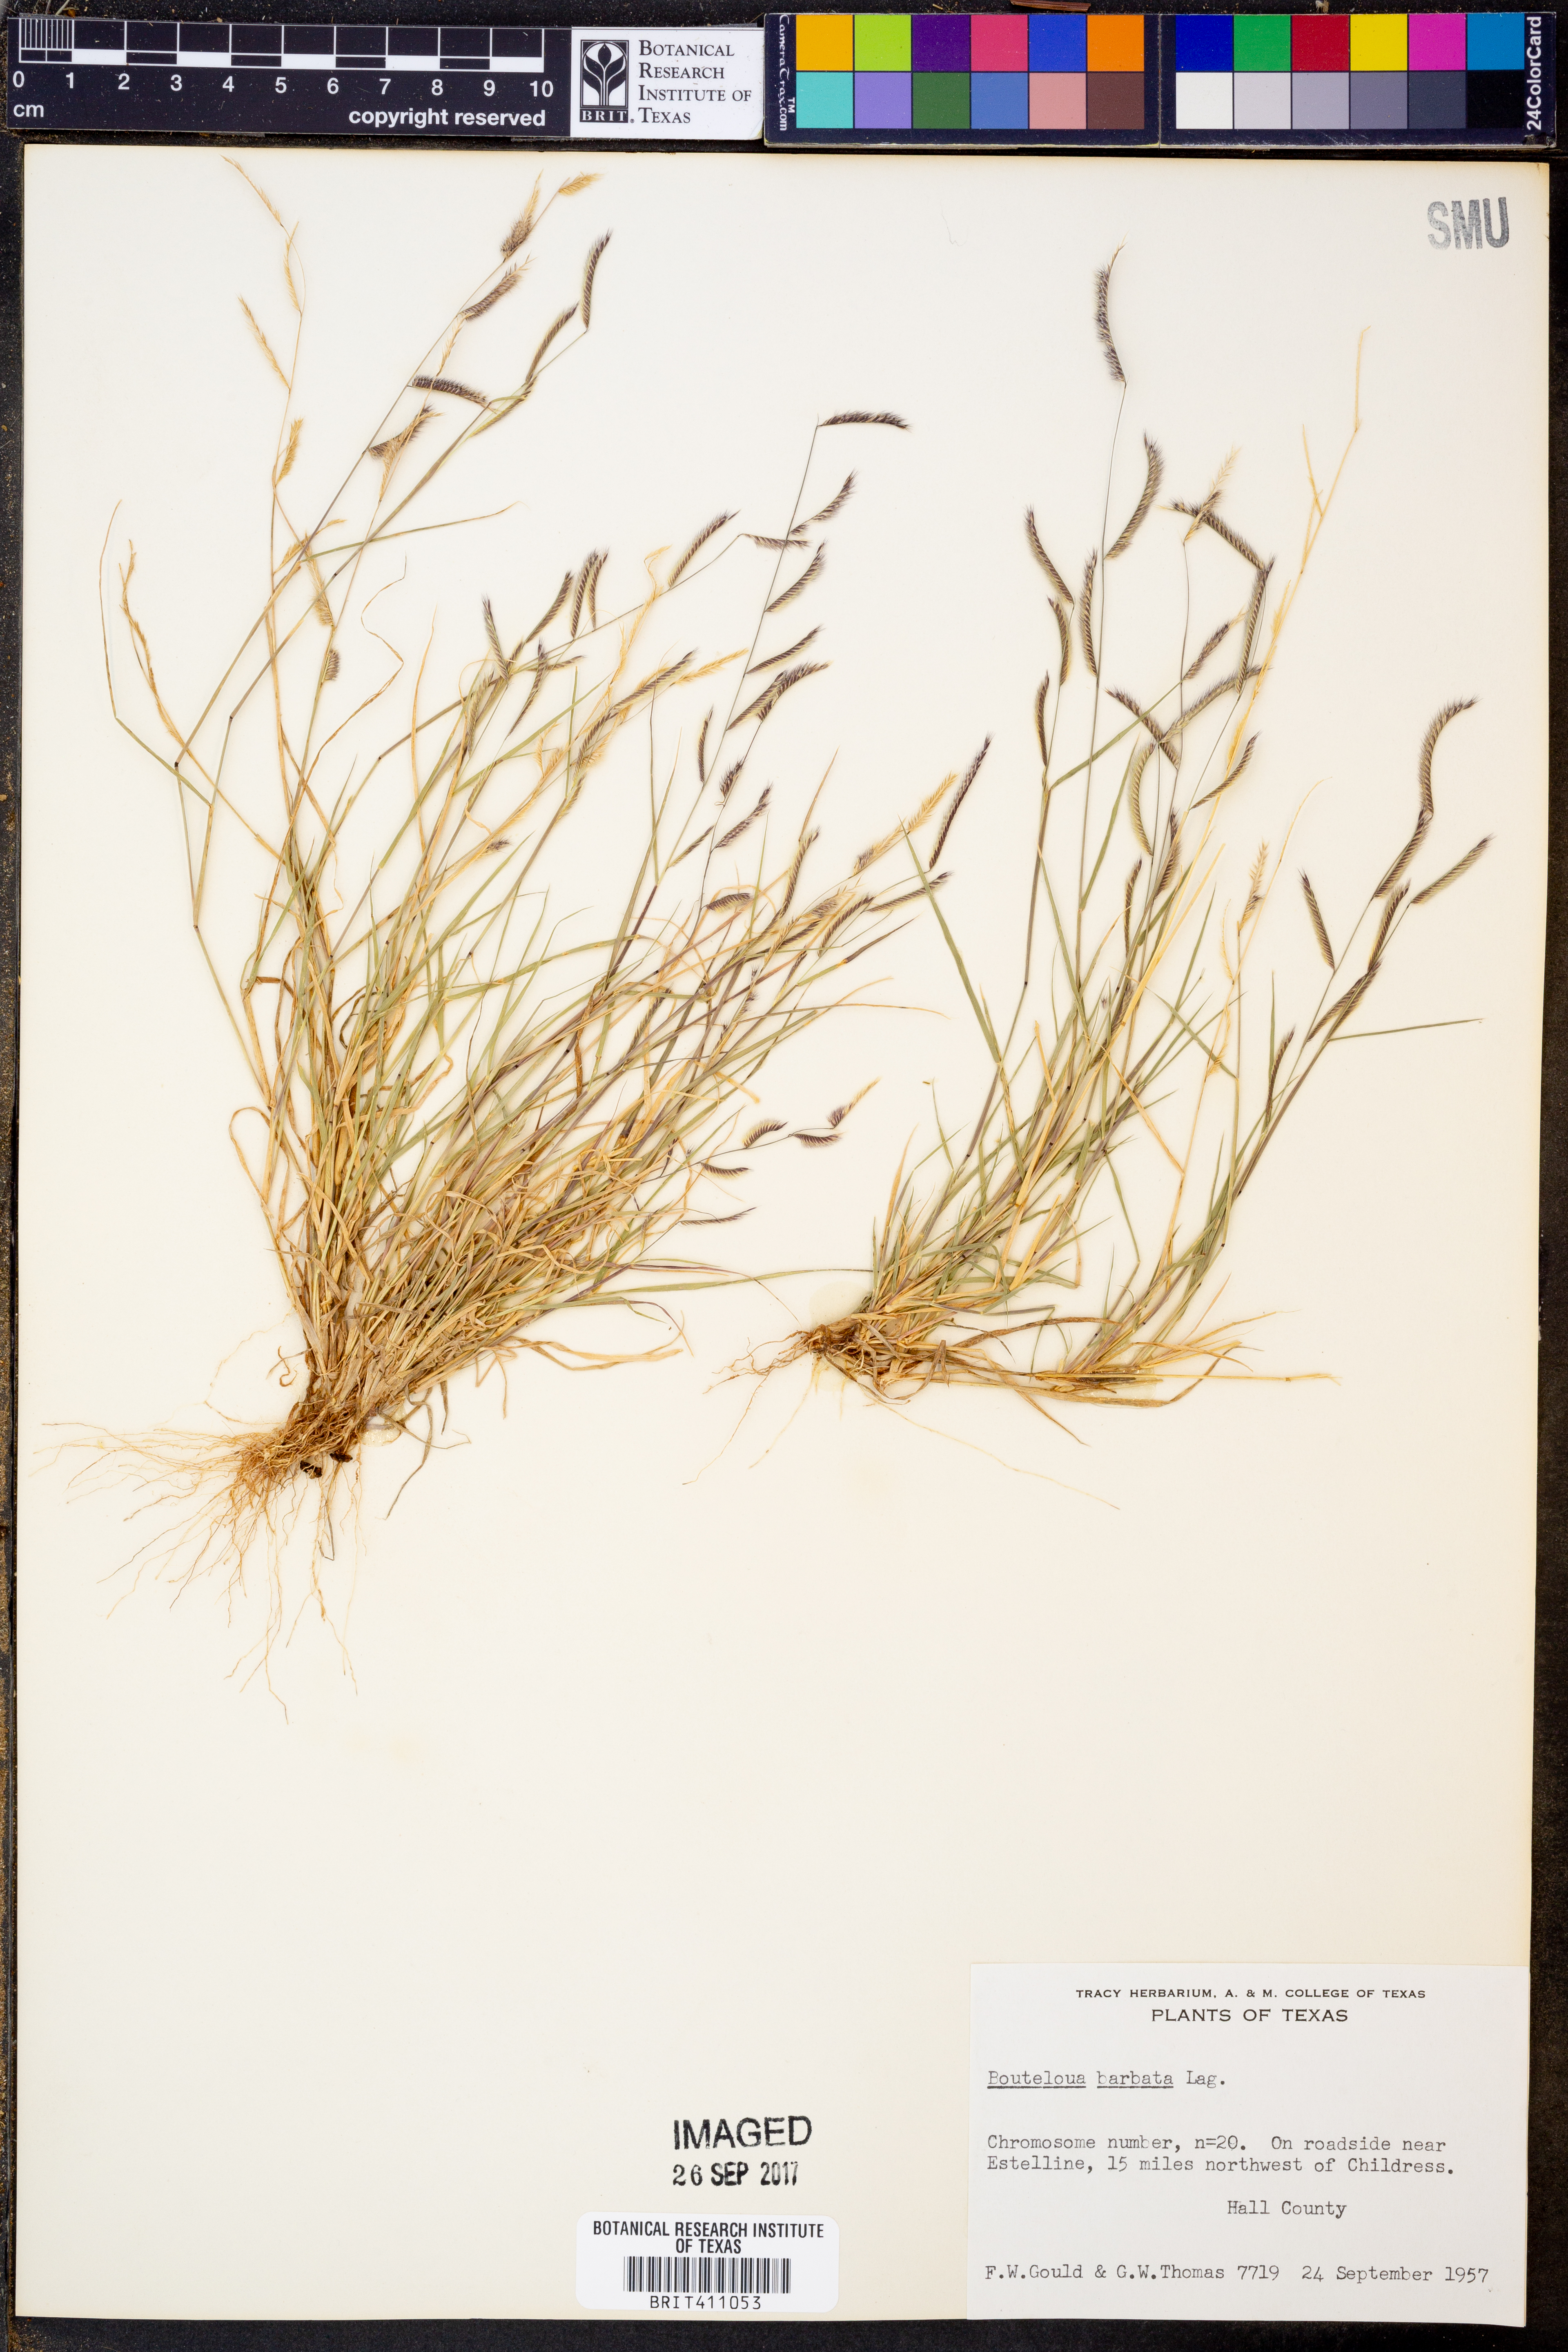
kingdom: Plantae
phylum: Tracheophyta
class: Liliopsida
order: Poales
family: Poaceae
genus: Bouteloua
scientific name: Bouteloua barbata
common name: Six-weeks grama
